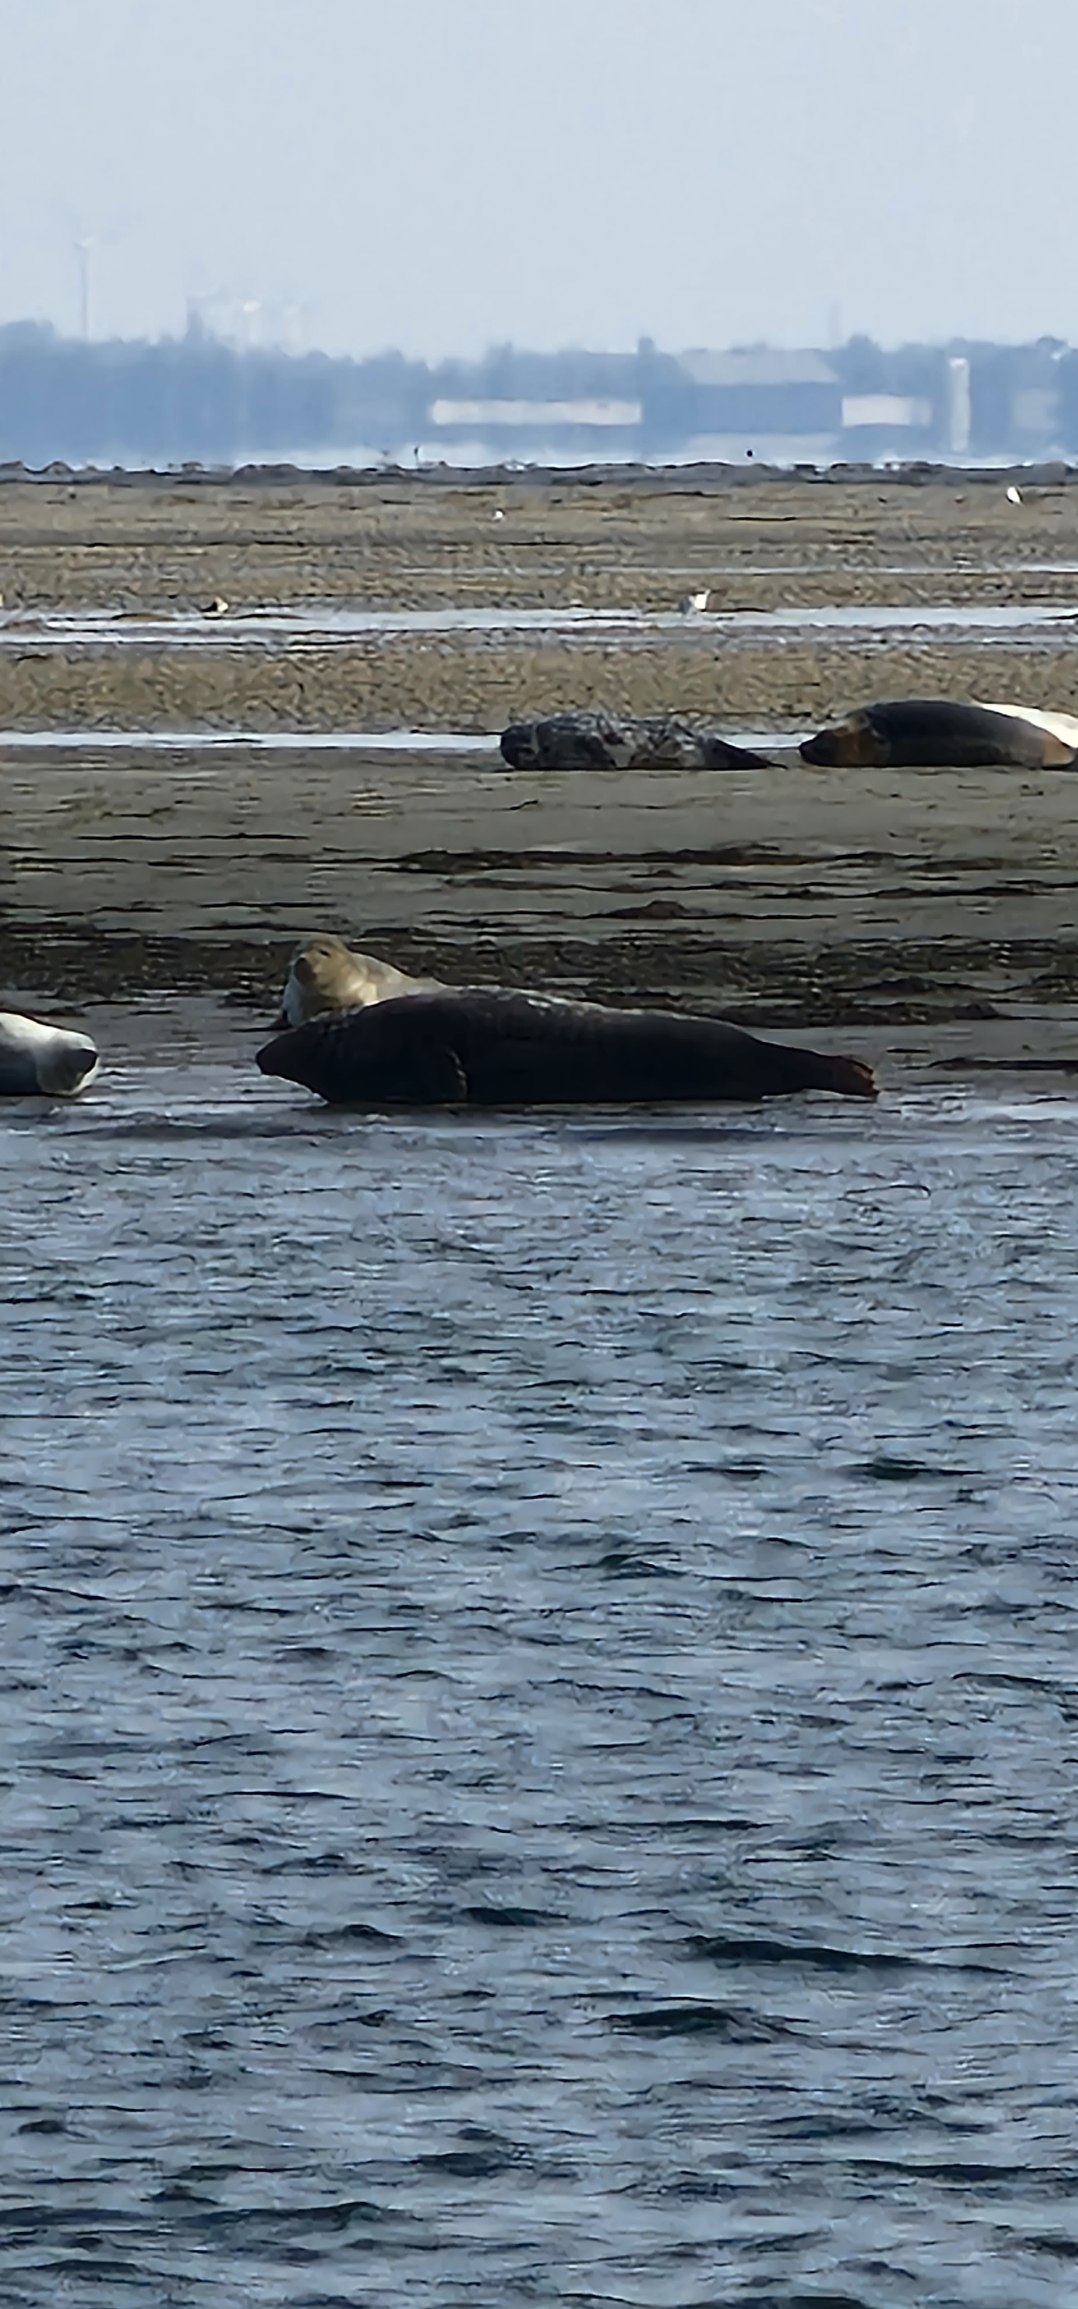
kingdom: Animalia
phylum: Chordata
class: Mammalia
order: Carnivora
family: Phocidae
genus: Halichoerus
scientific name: Halichoerus grypus
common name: Gråsæl
